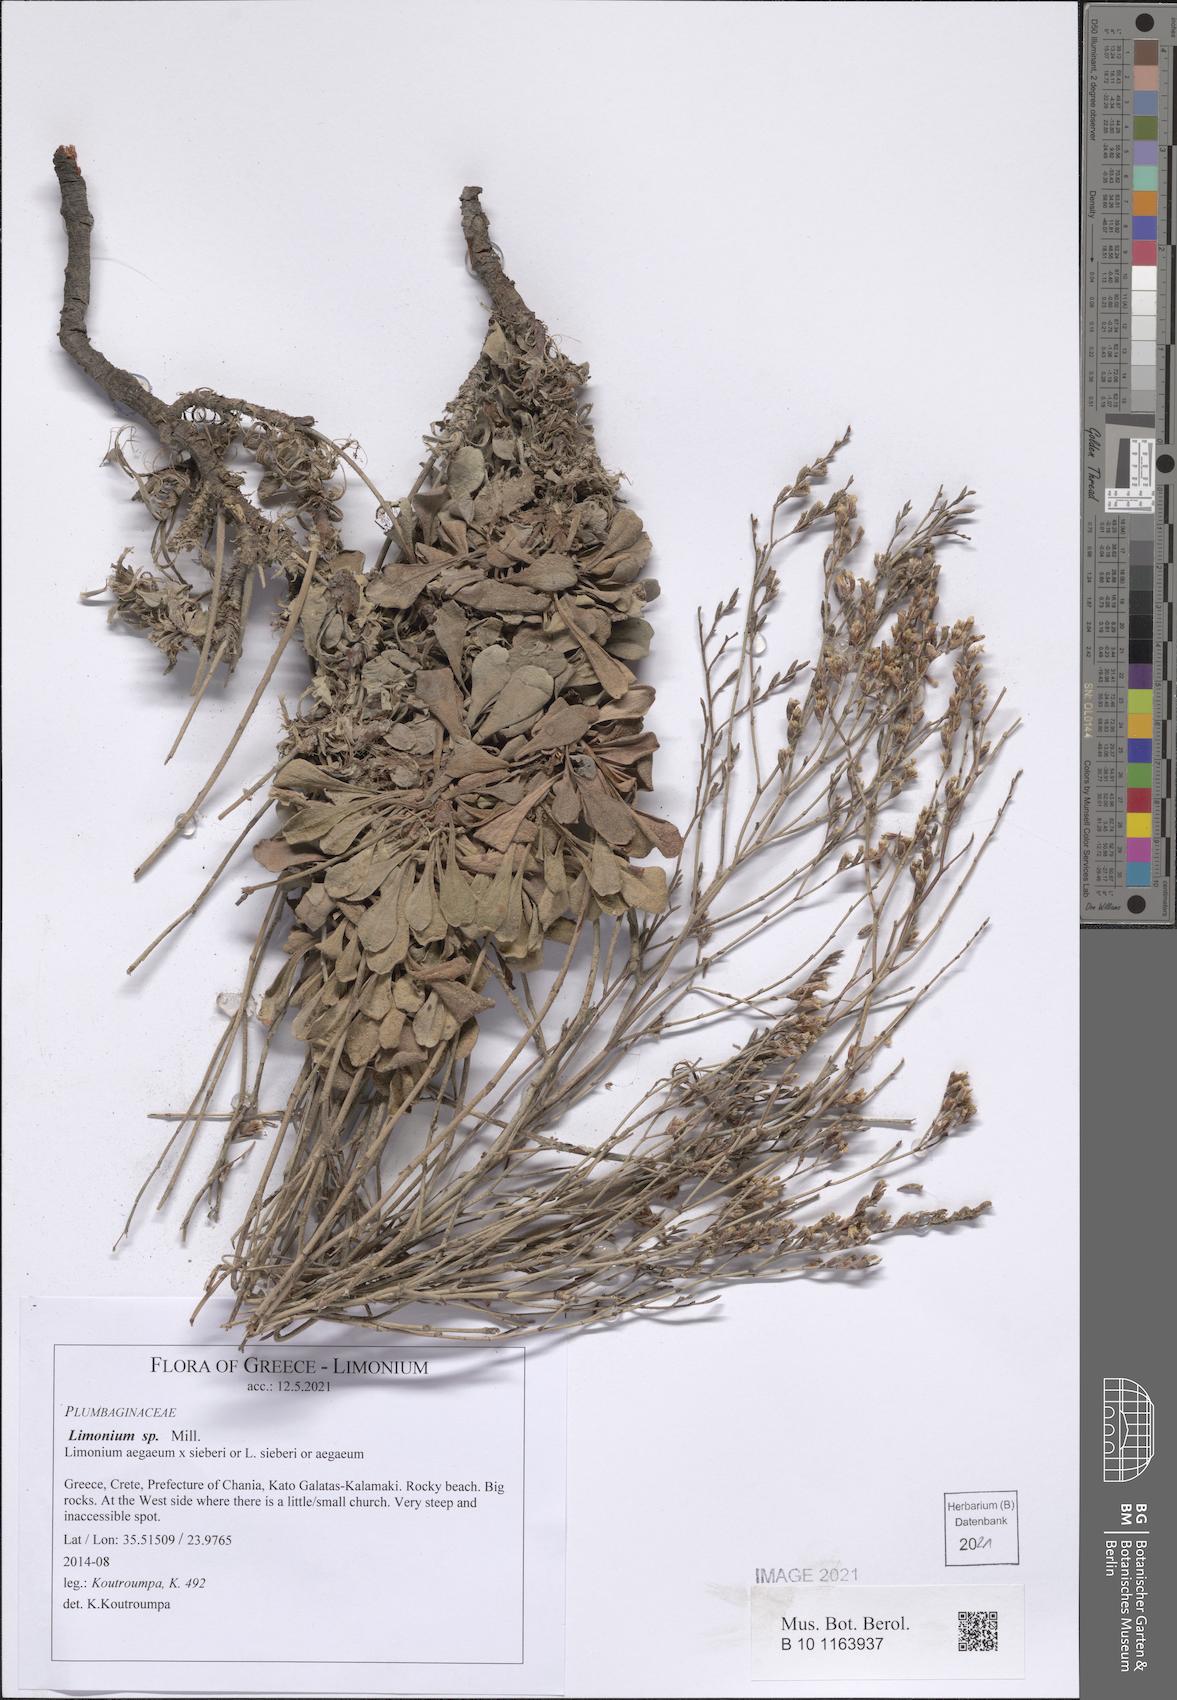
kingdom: Plantae
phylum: Tracheophyta
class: Magnoliopsida
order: Caryophyllales
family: Plumbaginaceae
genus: Limonium
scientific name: Limonium
